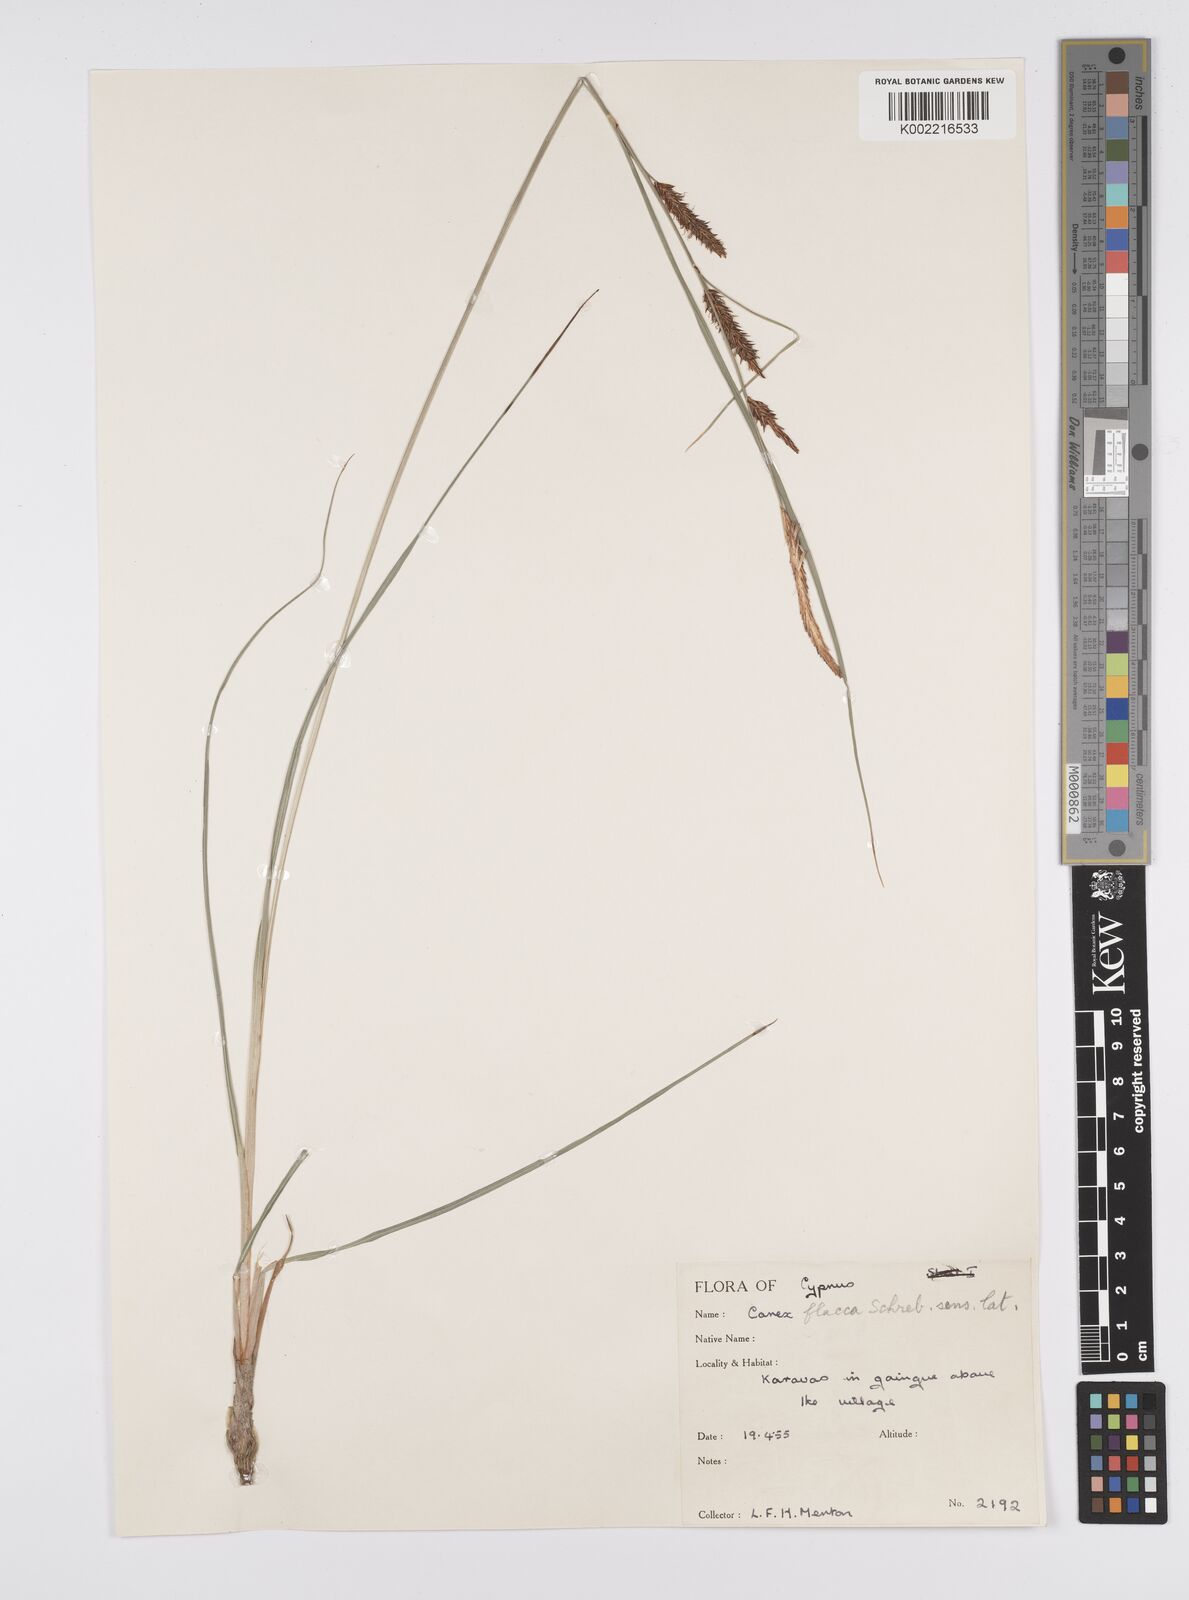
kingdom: Plantae
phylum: Tracheophyta
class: Liliopsida
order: Poales
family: Cyperaceae
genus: Carex
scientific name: Carex flacca
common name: Glaucous sedge
